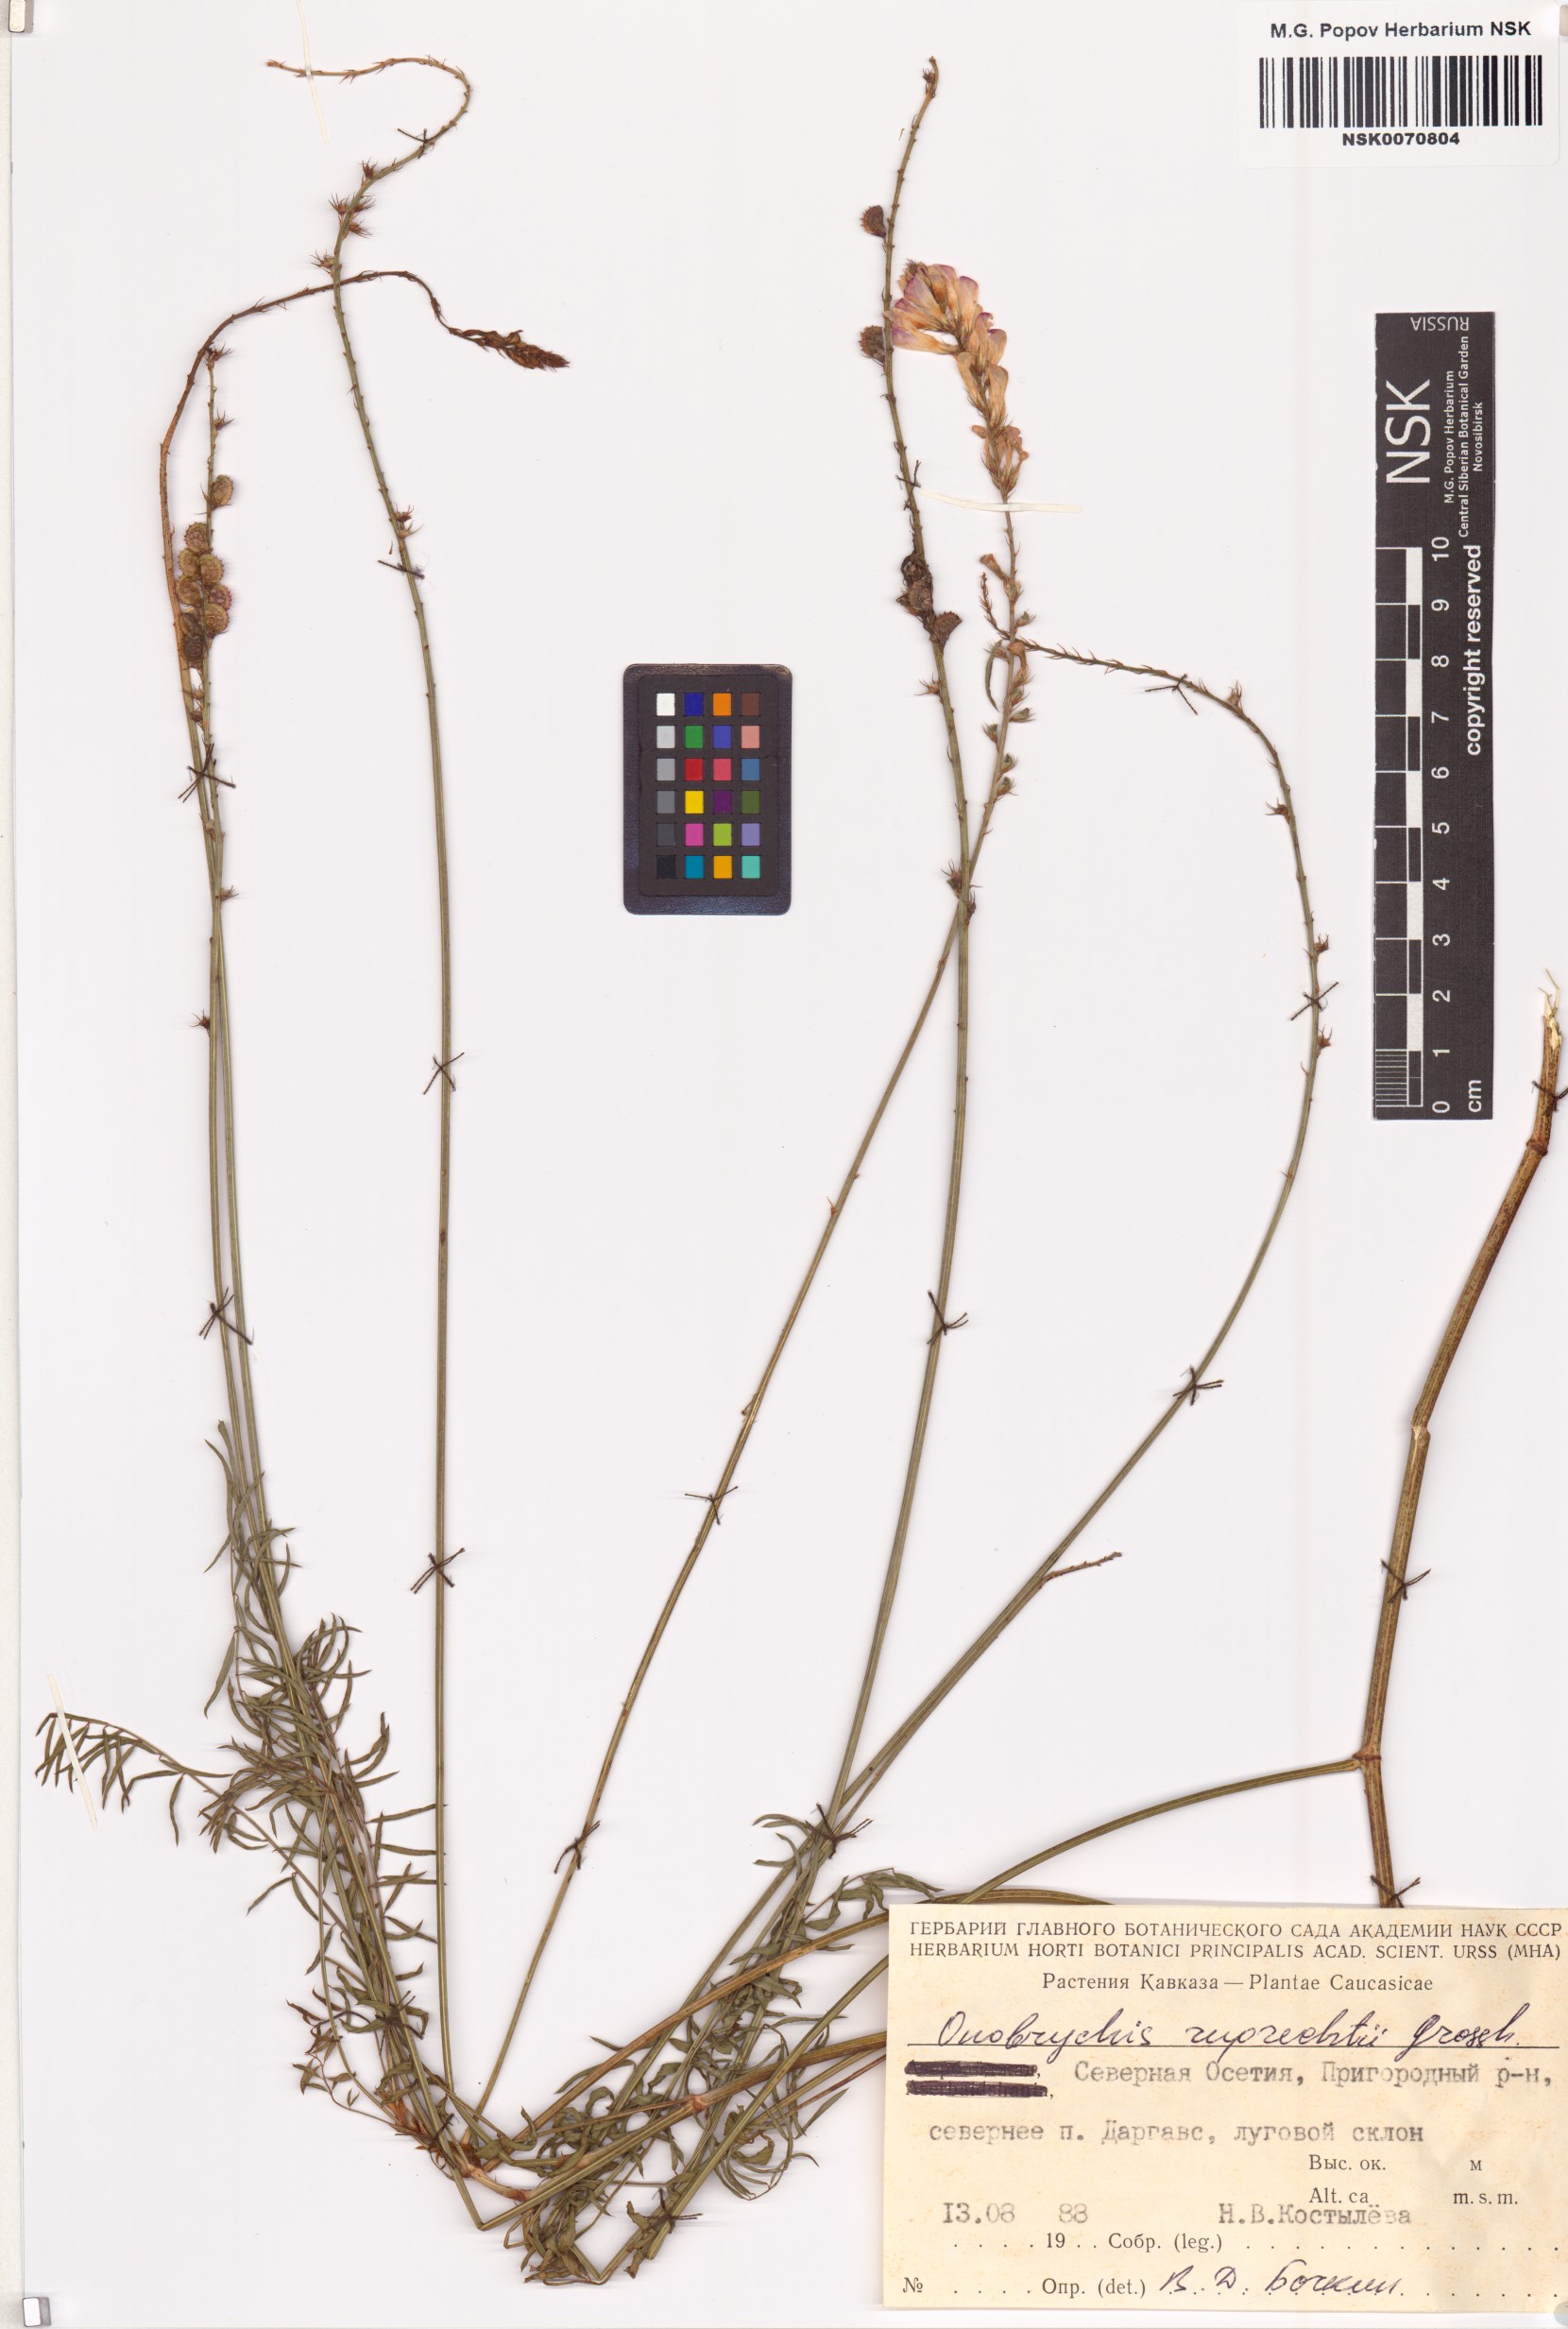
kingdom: Plantae
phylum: Tracheophyta
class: Magnoliopsida
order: Fabales
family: Fabaceae
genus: Onobrychis
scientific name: Onobrychis ruprechtii
